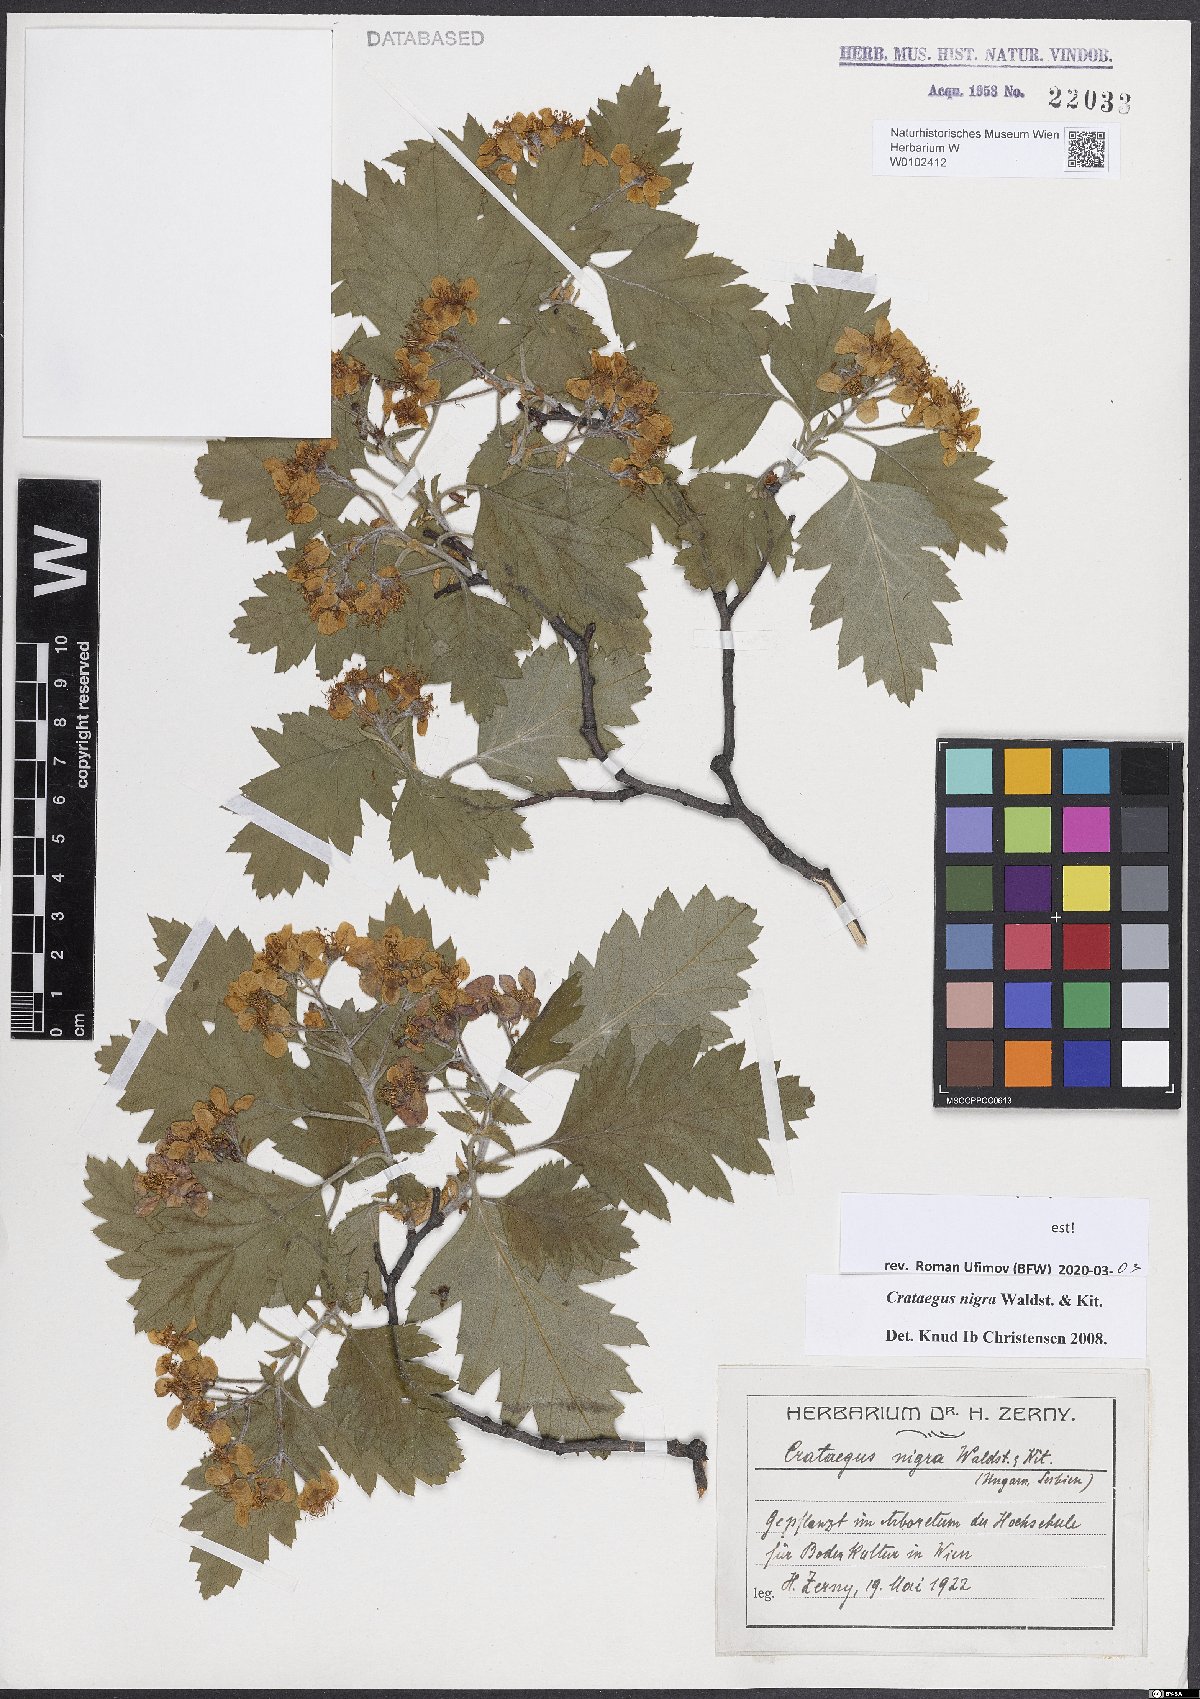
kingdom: Plantae
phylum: Tracheophyta
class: Magnoliopsida
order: Rosales
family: Rosaceae
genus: Crataegus
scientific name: Crataegus nigra
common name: Hungarian thorn
